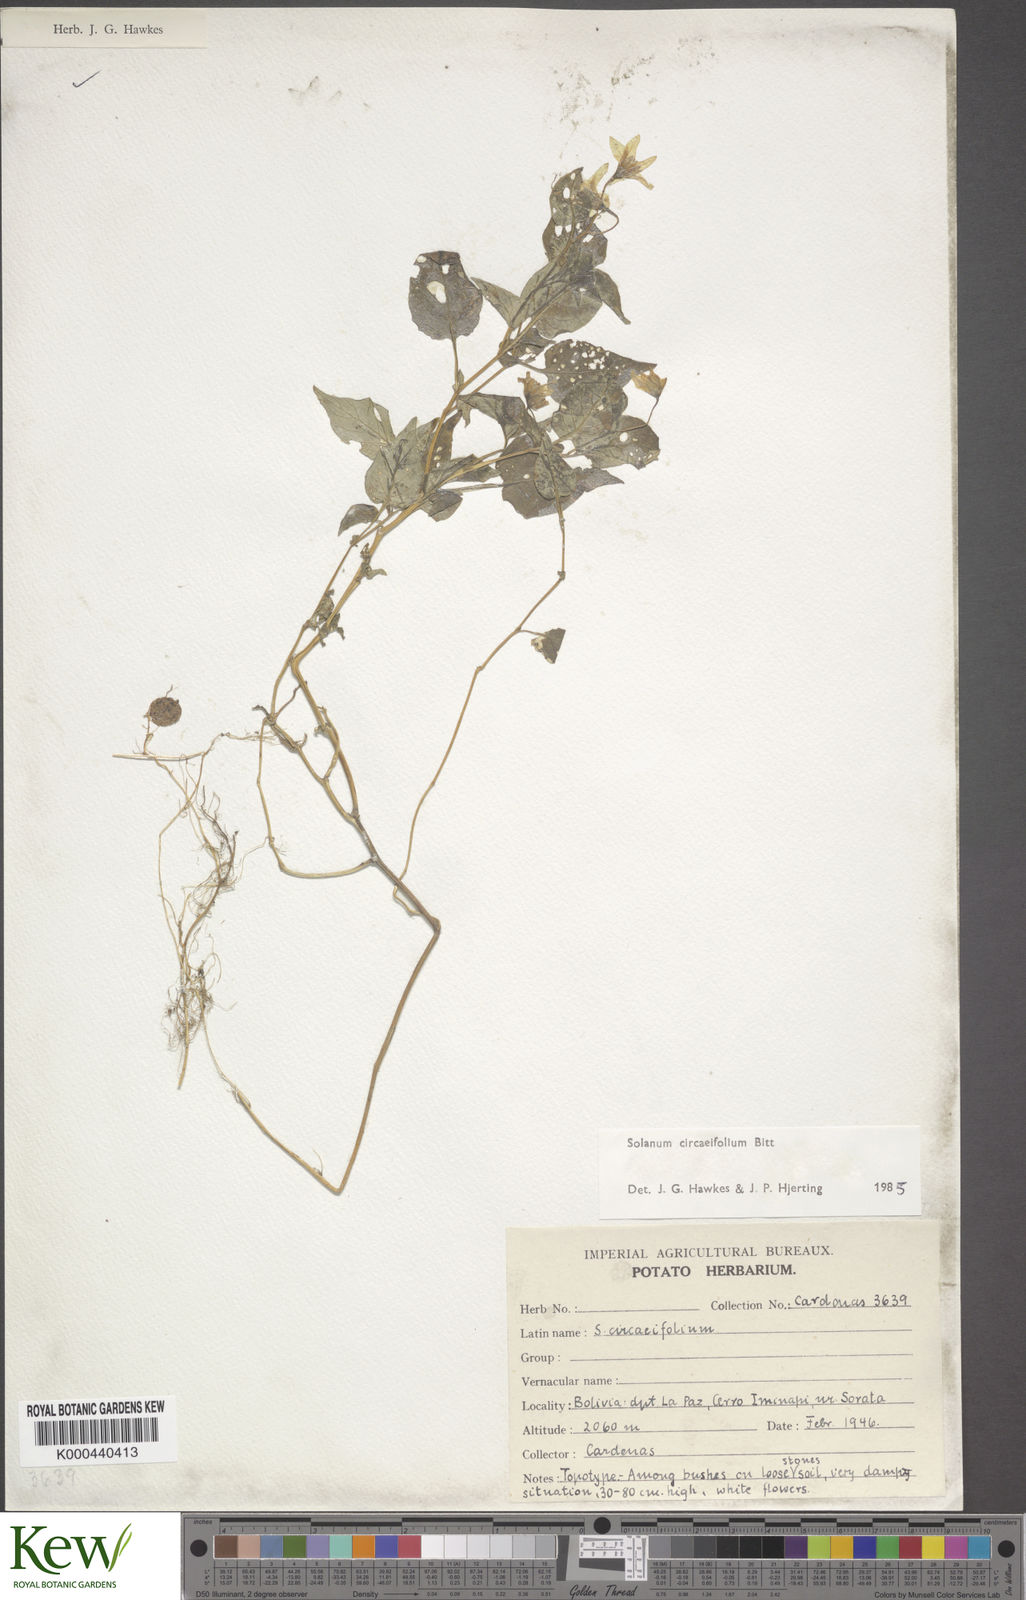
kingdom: Plantae
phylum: Tracheophyta
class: Magnoliopsida
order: Solanales
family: Solanaceae
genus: Solanum
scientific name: Solanum stipuloideum
